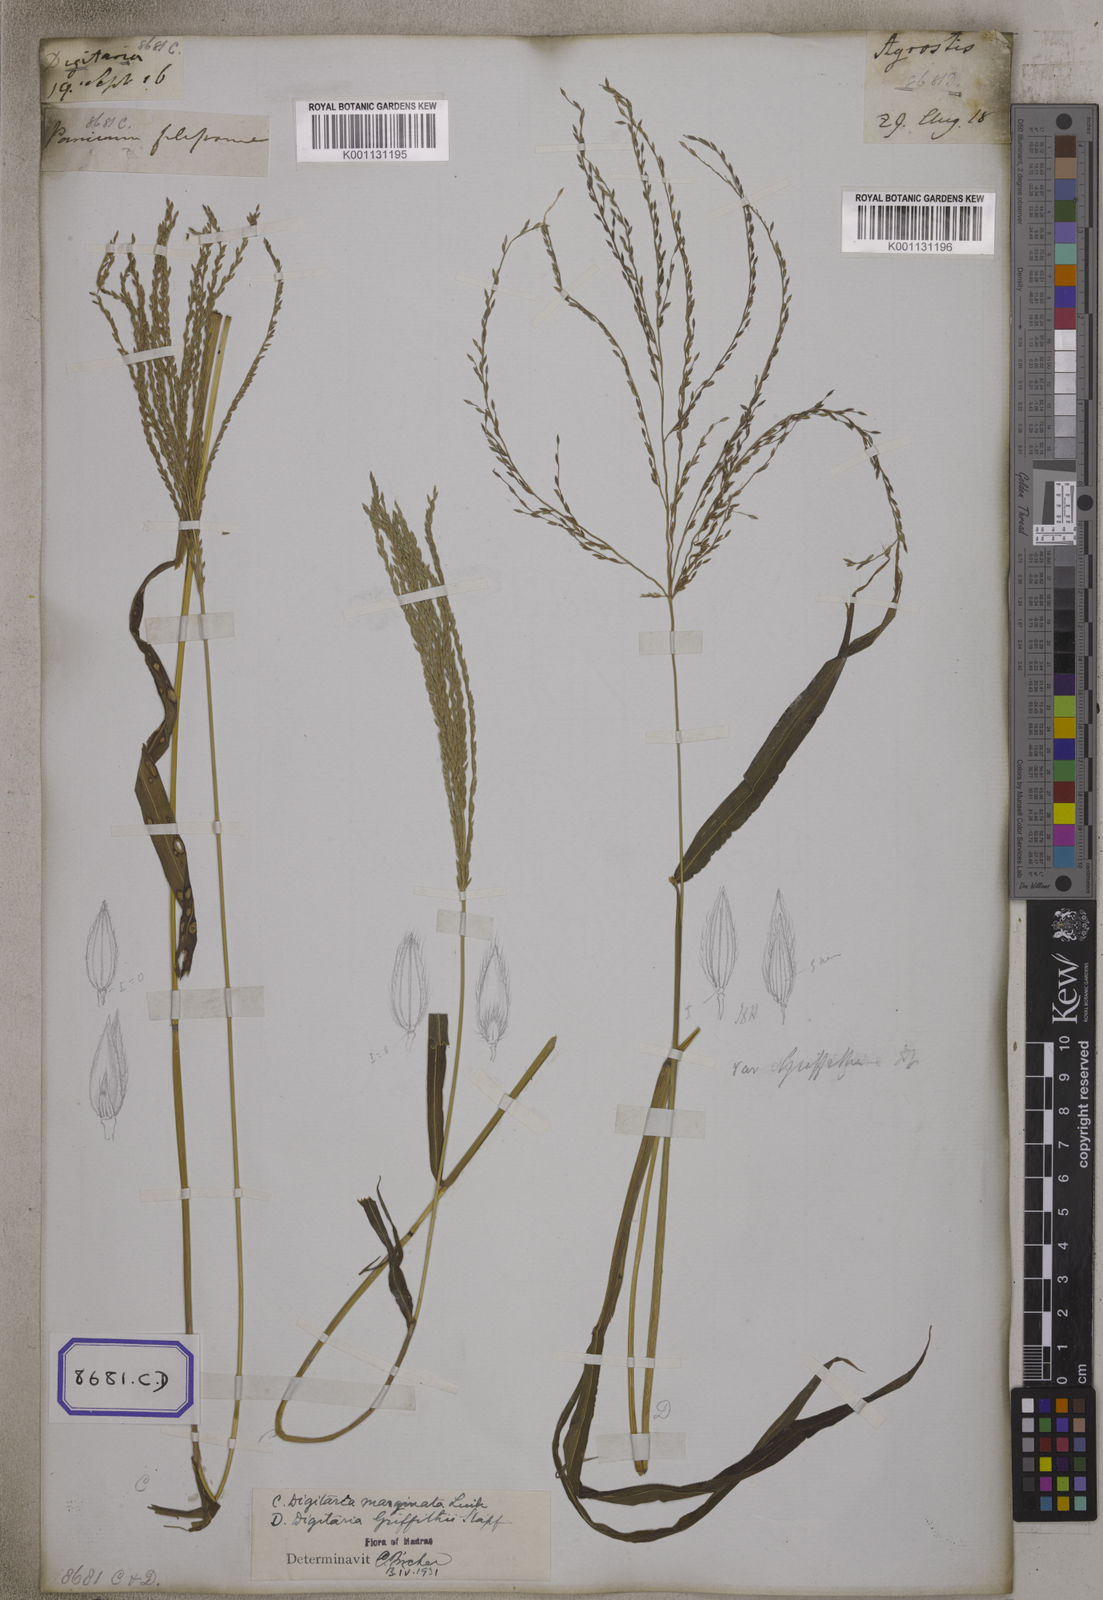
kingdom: Plantae
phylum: Tracheophyta
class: Liliopsida
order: Poales
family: Poaceae
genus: Digitaria
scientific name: Digitaria sanguinalis
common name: Hairy crabgrass
